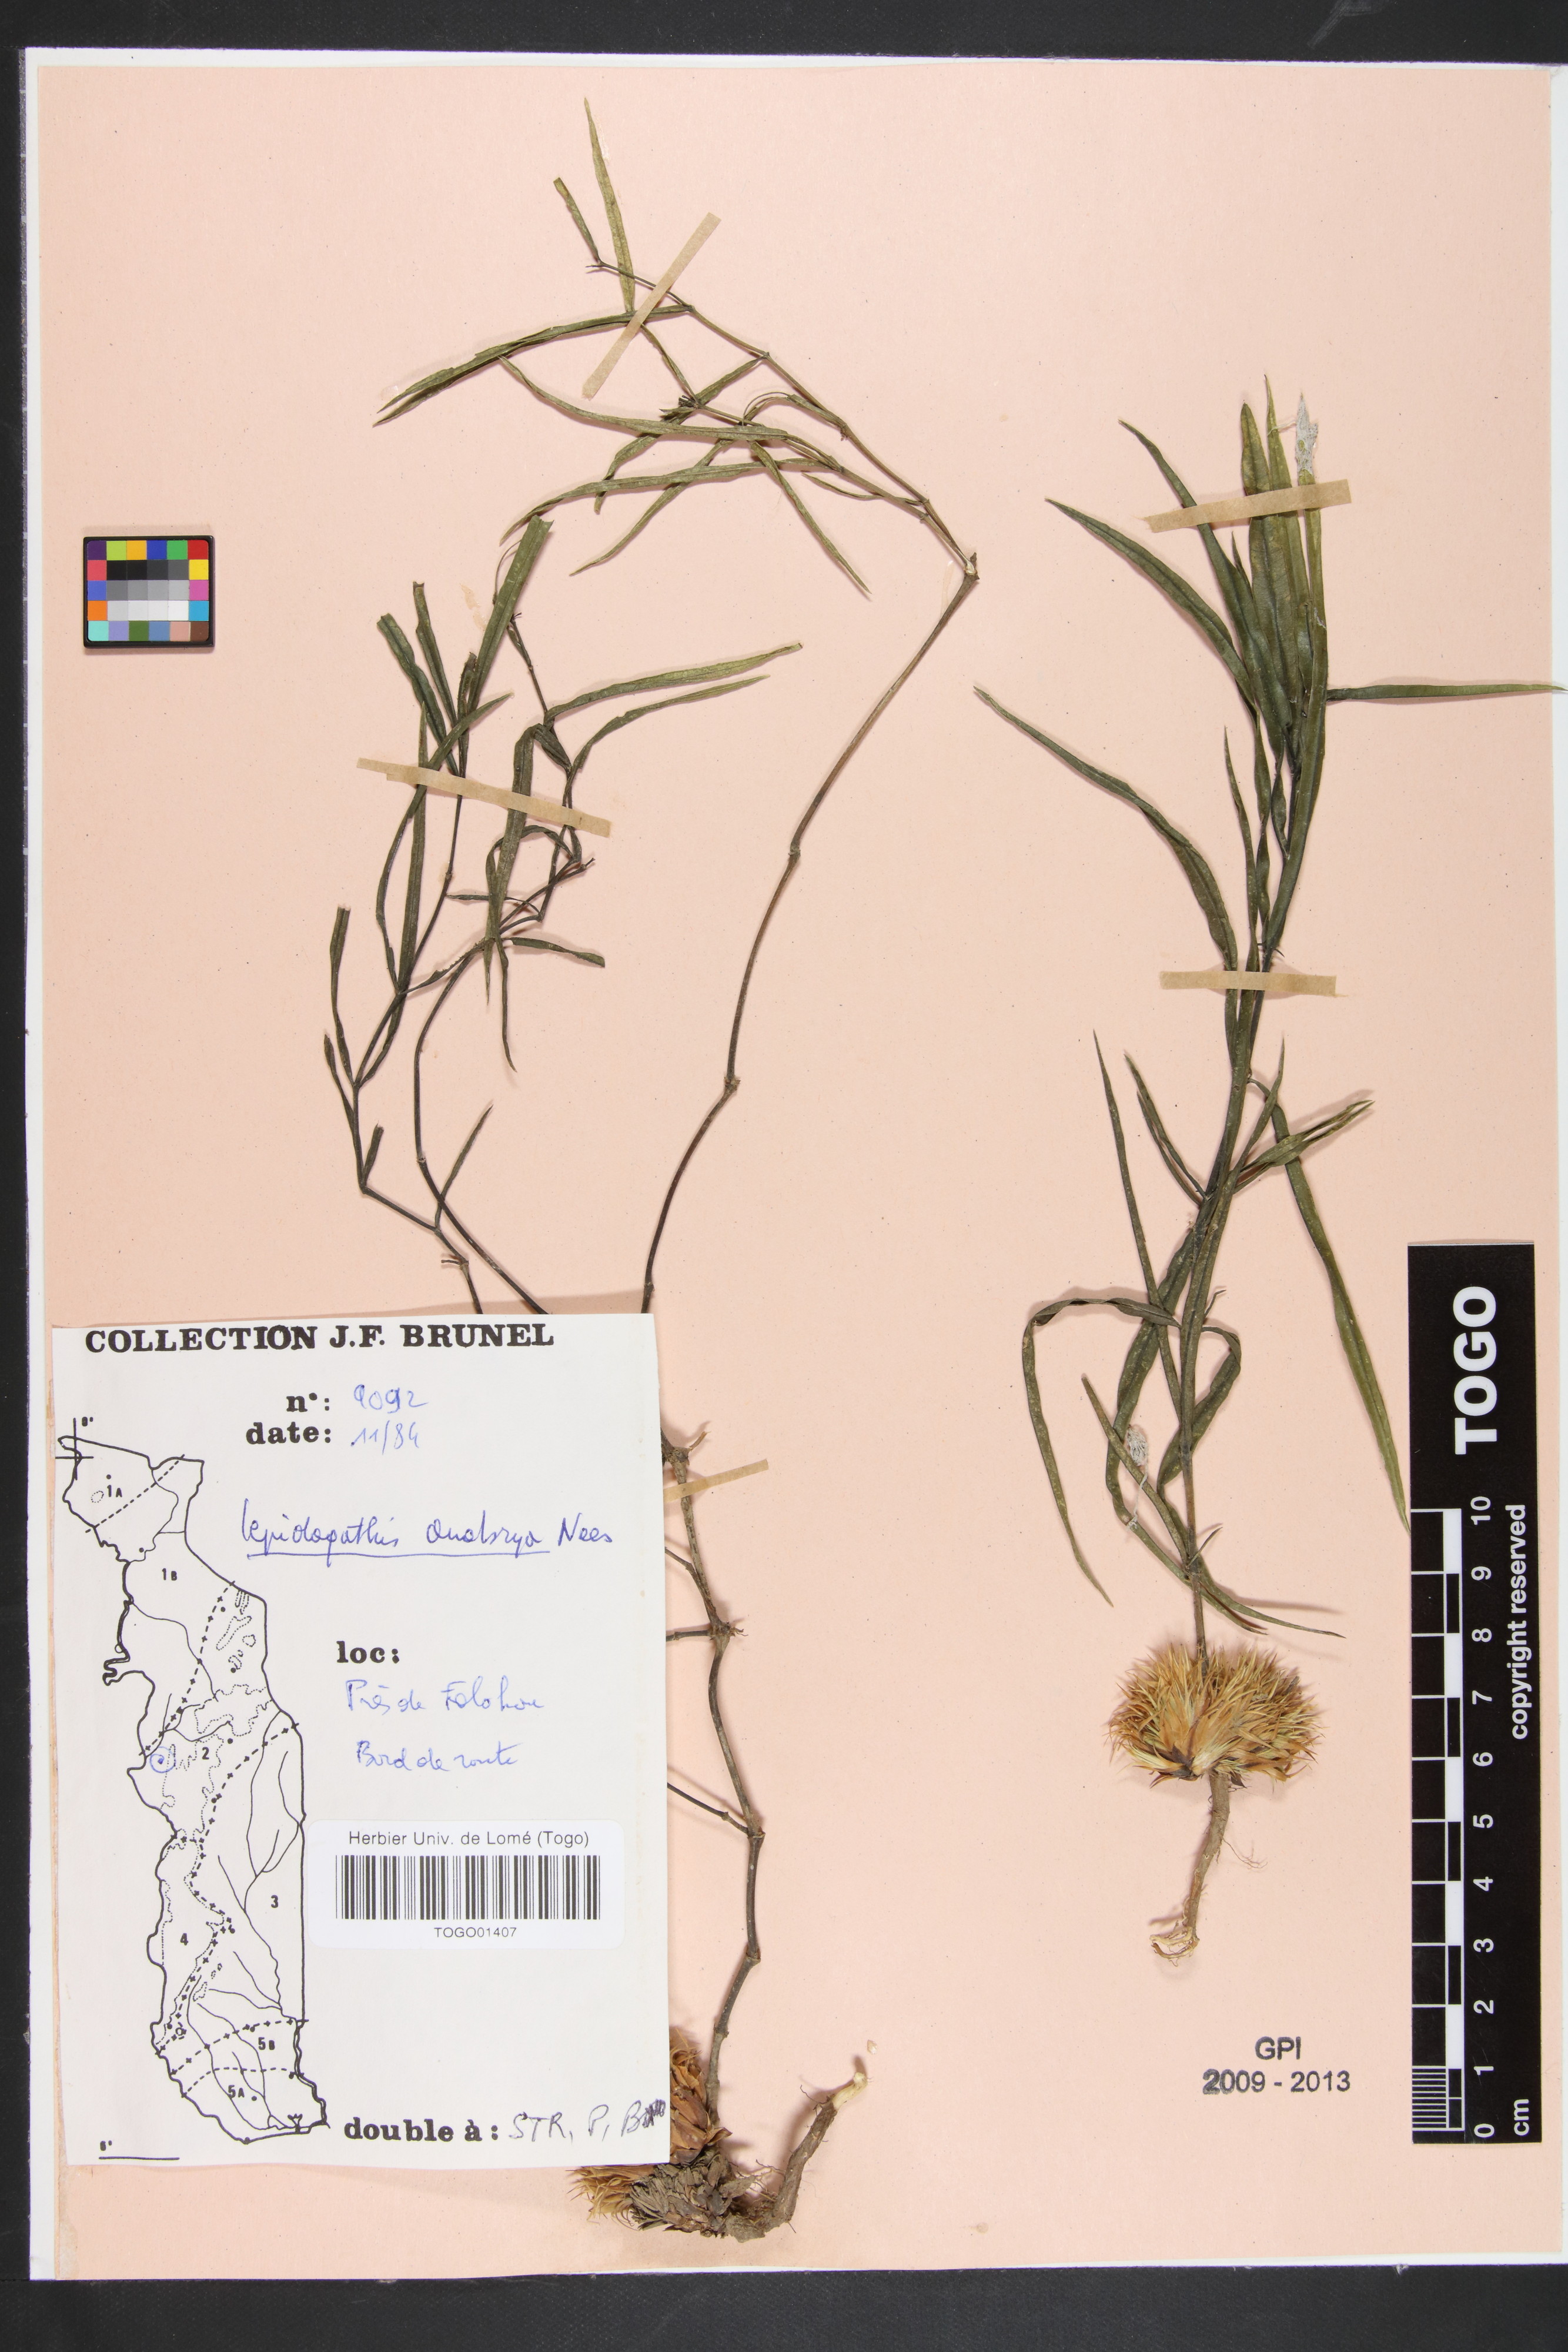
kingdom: Plantae
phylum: Tracheophyta
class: Magnoliopsida
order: Lamiales
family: Acanthaceae
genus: Lepidagathis
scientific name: Lepidagathis anobrya
